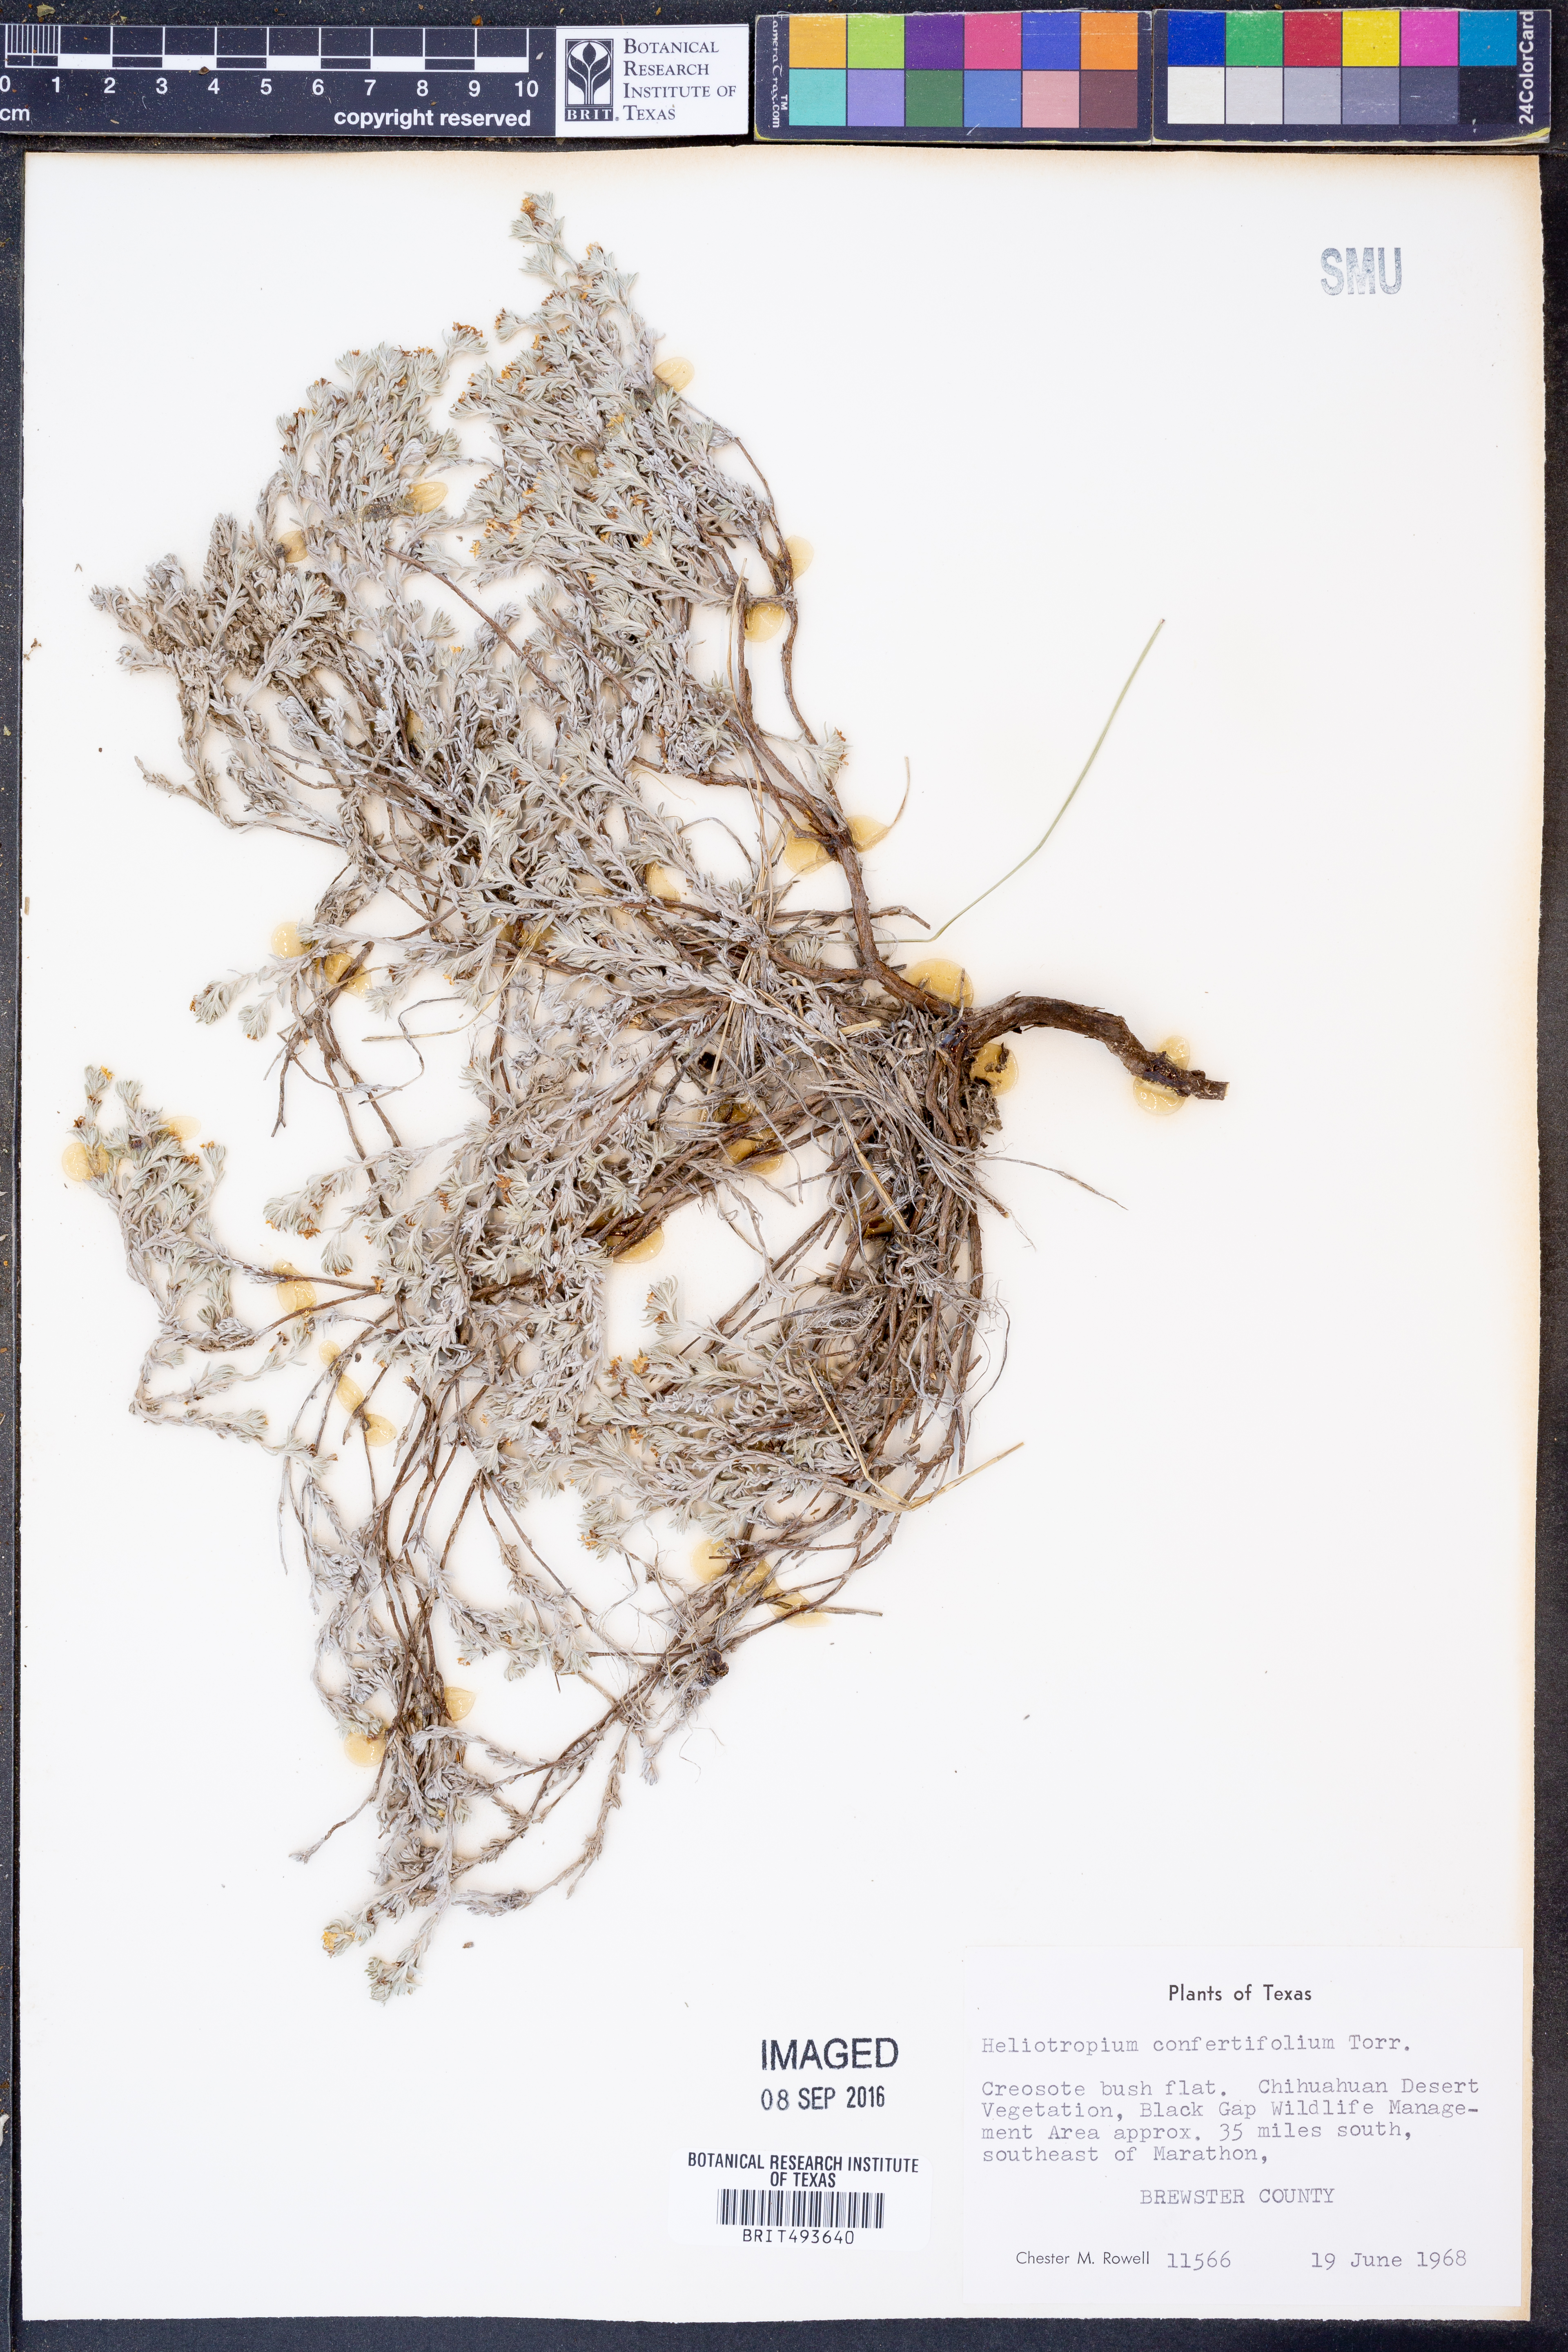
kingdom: Plantae
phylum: Tracheophyta
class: Magnoliopsida
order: Boraginales
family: Heliotropiaceae
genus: Euploca
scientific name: Euploca confertifolia
